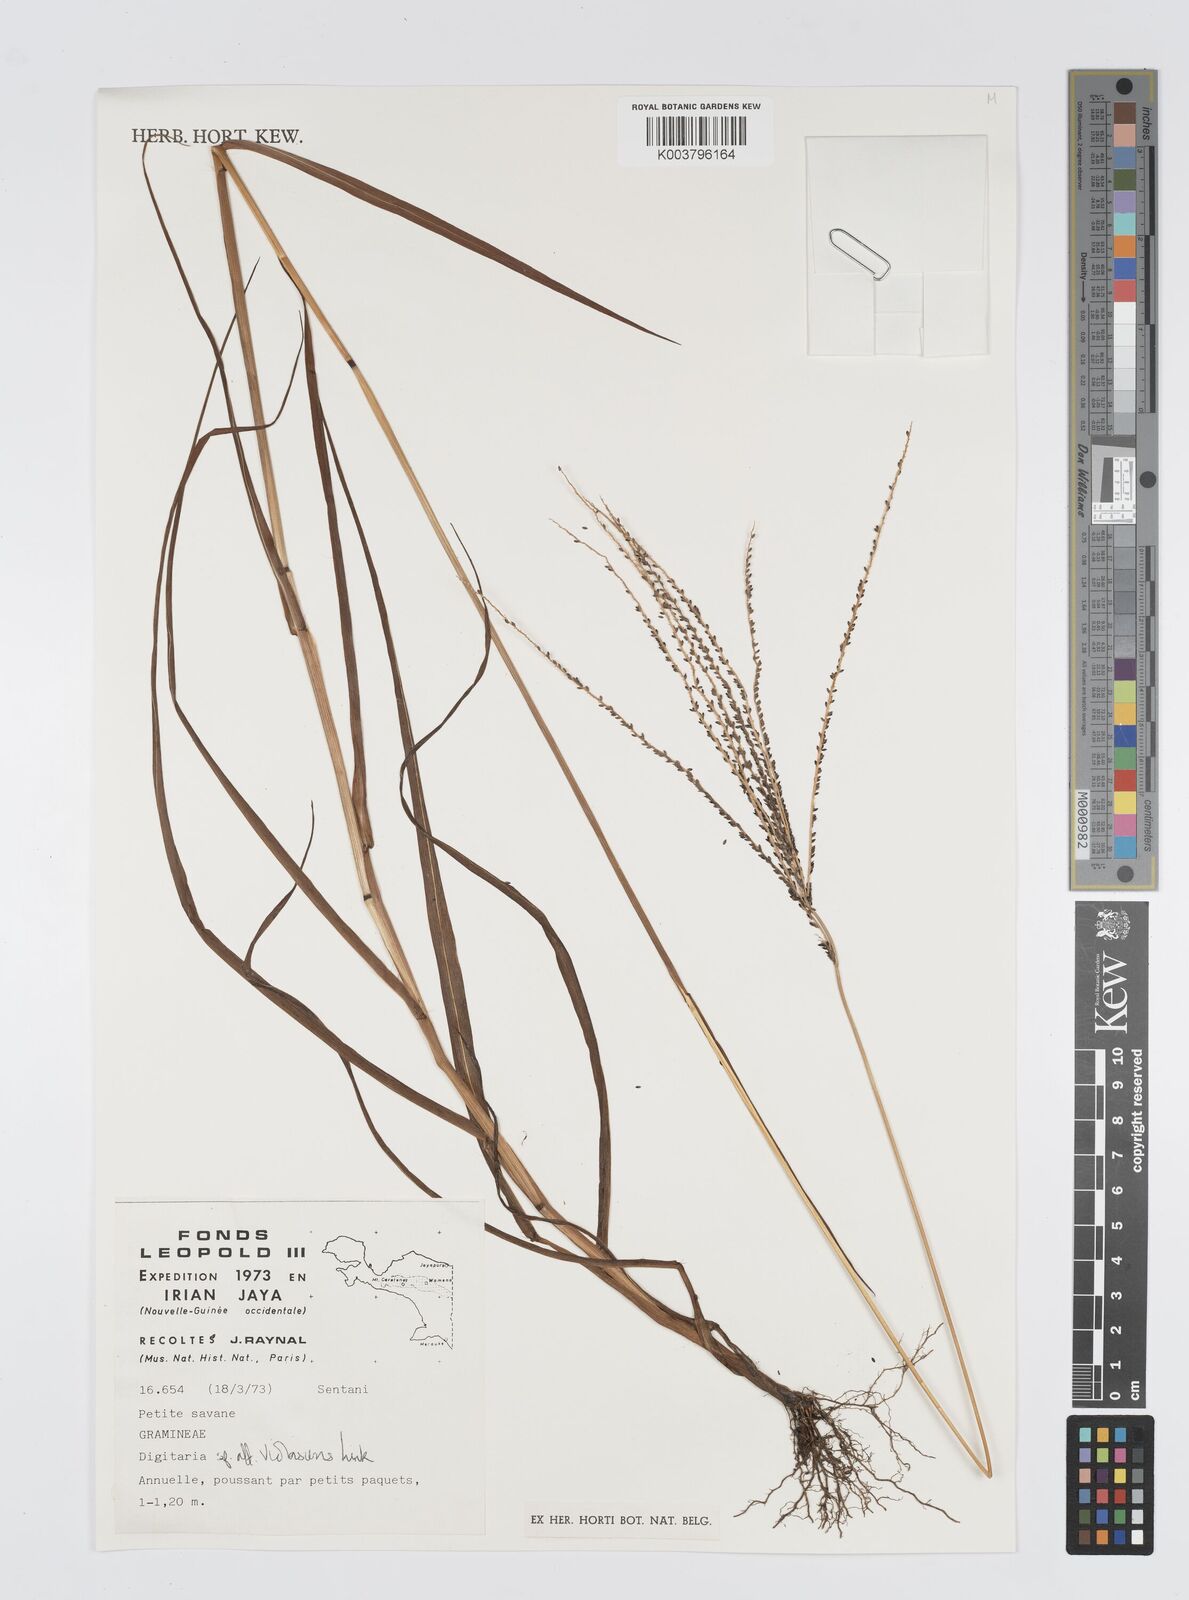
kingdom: Plantae
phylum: Tracheophyta
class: Liliopsida
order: Poales
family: Poaceae
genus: Digitaria
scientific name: Digitaria violascens
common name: Violet crabgrass
